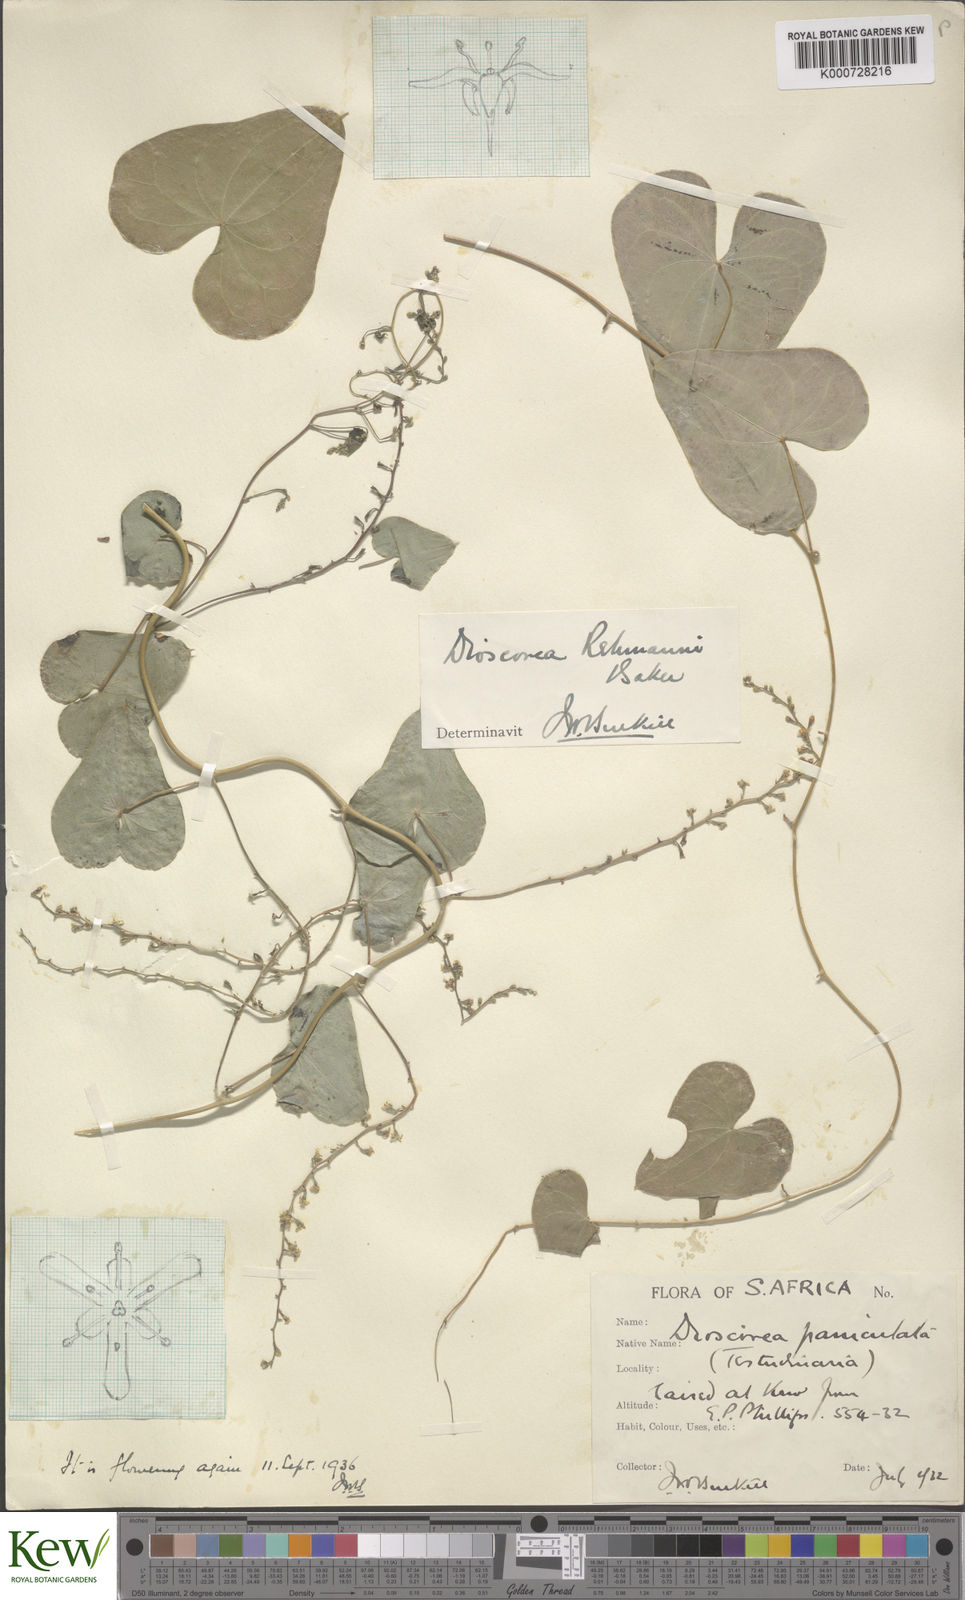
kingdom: Plantae
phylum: Tracheophyta
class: Liliopsida
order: Dioscoreales
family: Dioscoreaceae
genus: Dioscorea
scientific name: Dioscorea sylvatica
